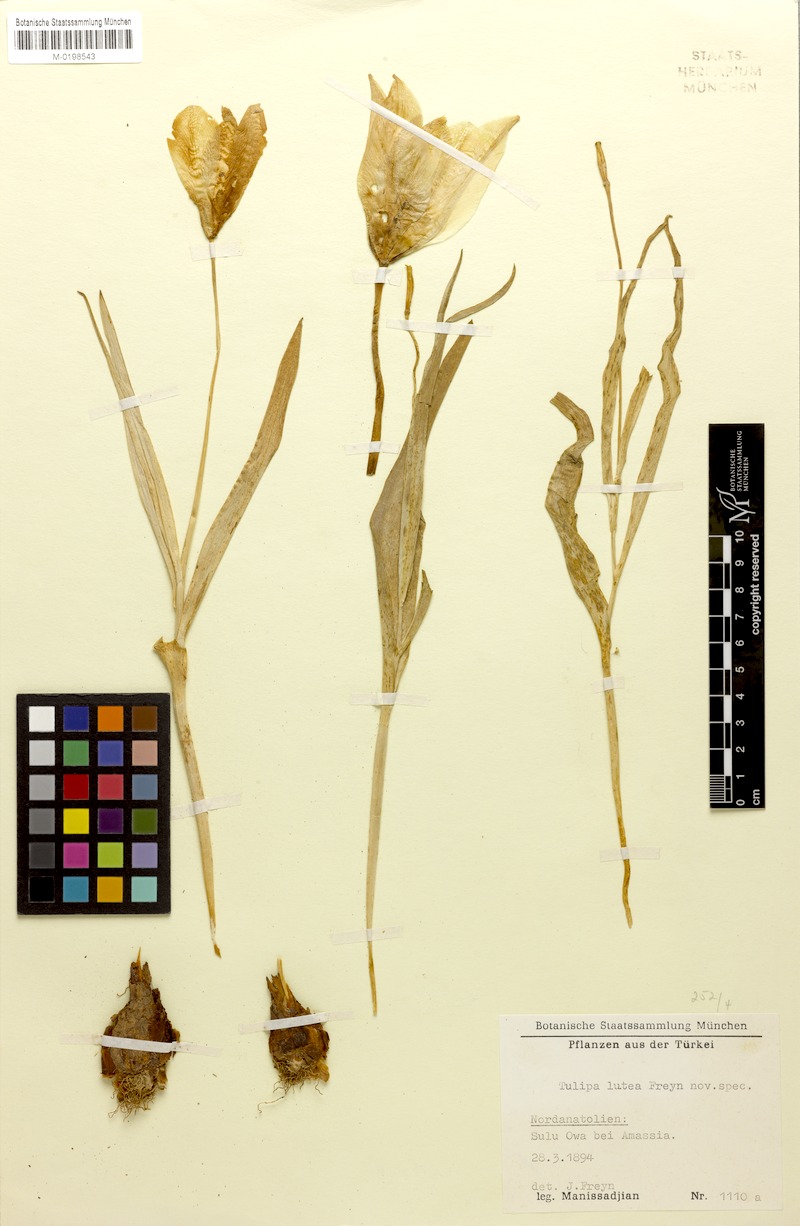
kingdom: Plantae
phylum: Tracheophyta
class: Liliopsida
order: Liliales
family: Liliaceae
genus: Tulipa
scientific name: Tulipa gesneriana
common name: Garden tulip
